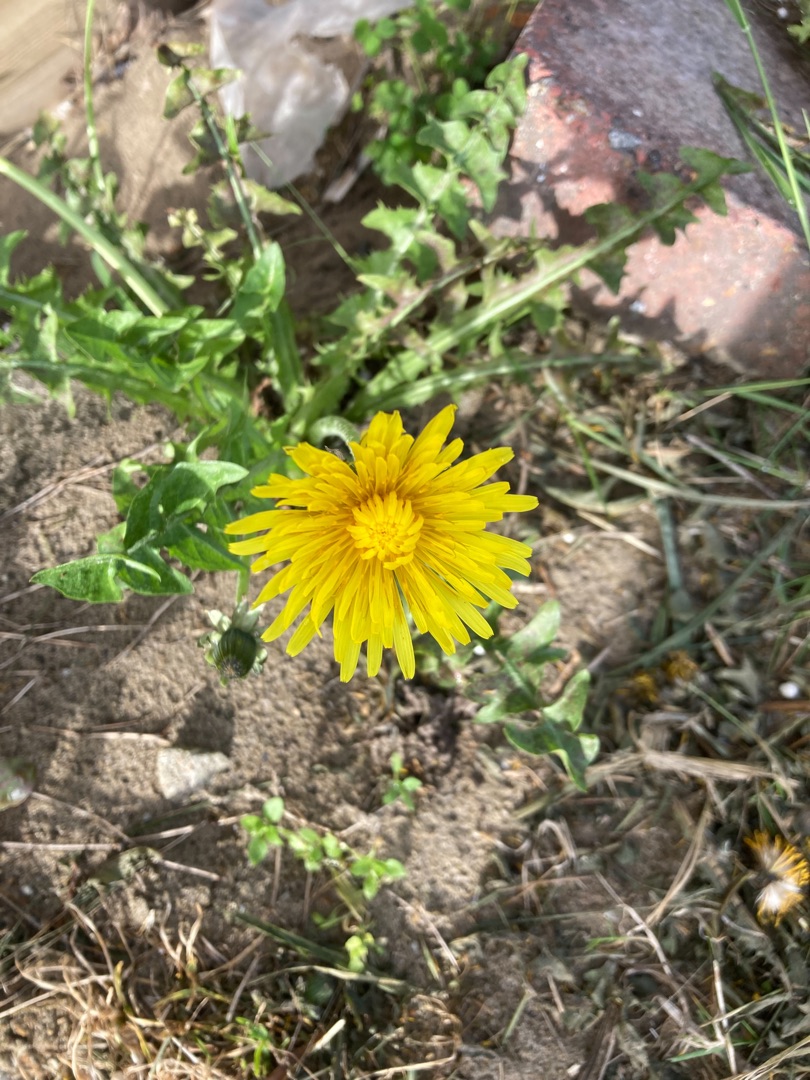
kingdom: Plantae
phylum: Tracheophyta
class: Magnoliopsida
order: Asterales
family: Asteraceae
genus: Taraxacum
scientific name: Taraxacum
